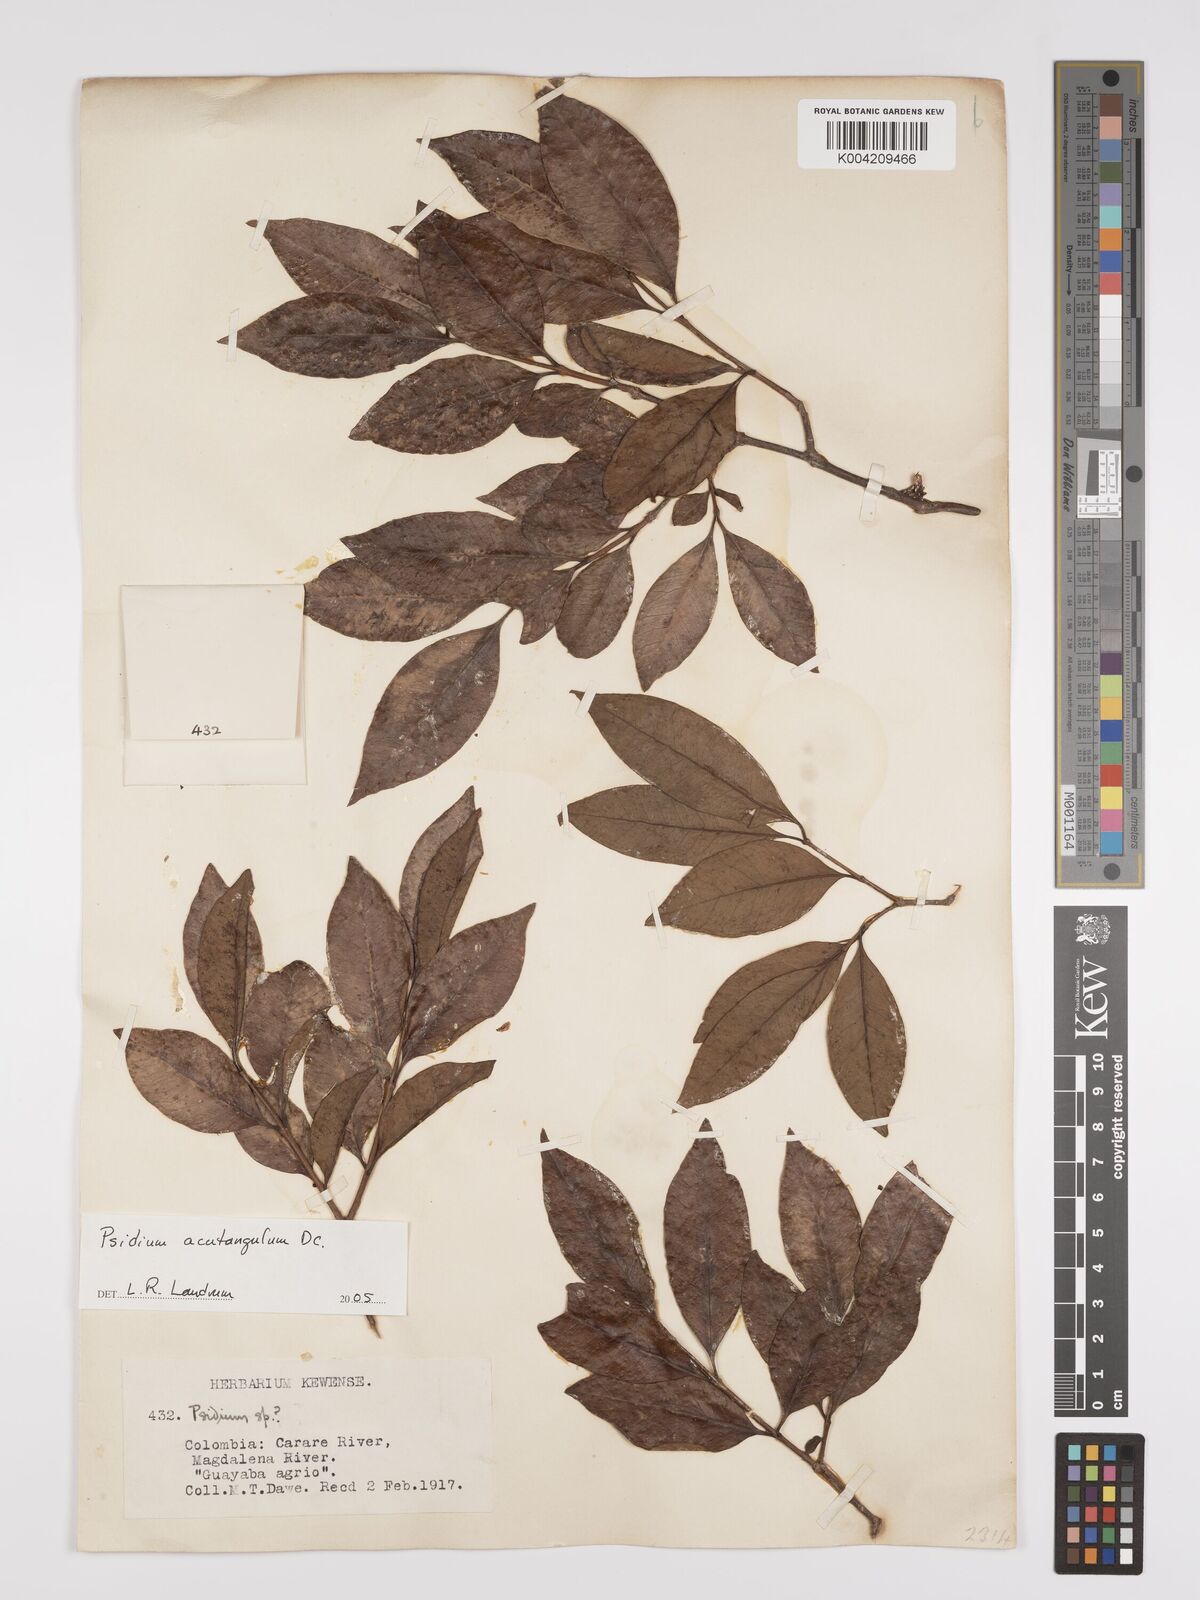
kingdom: Plantae
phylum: Tracheophyta
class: Magnoliopsida
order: Myrtales
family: Myrtaceae
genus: Psidium
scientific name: Psidium acutangulum
